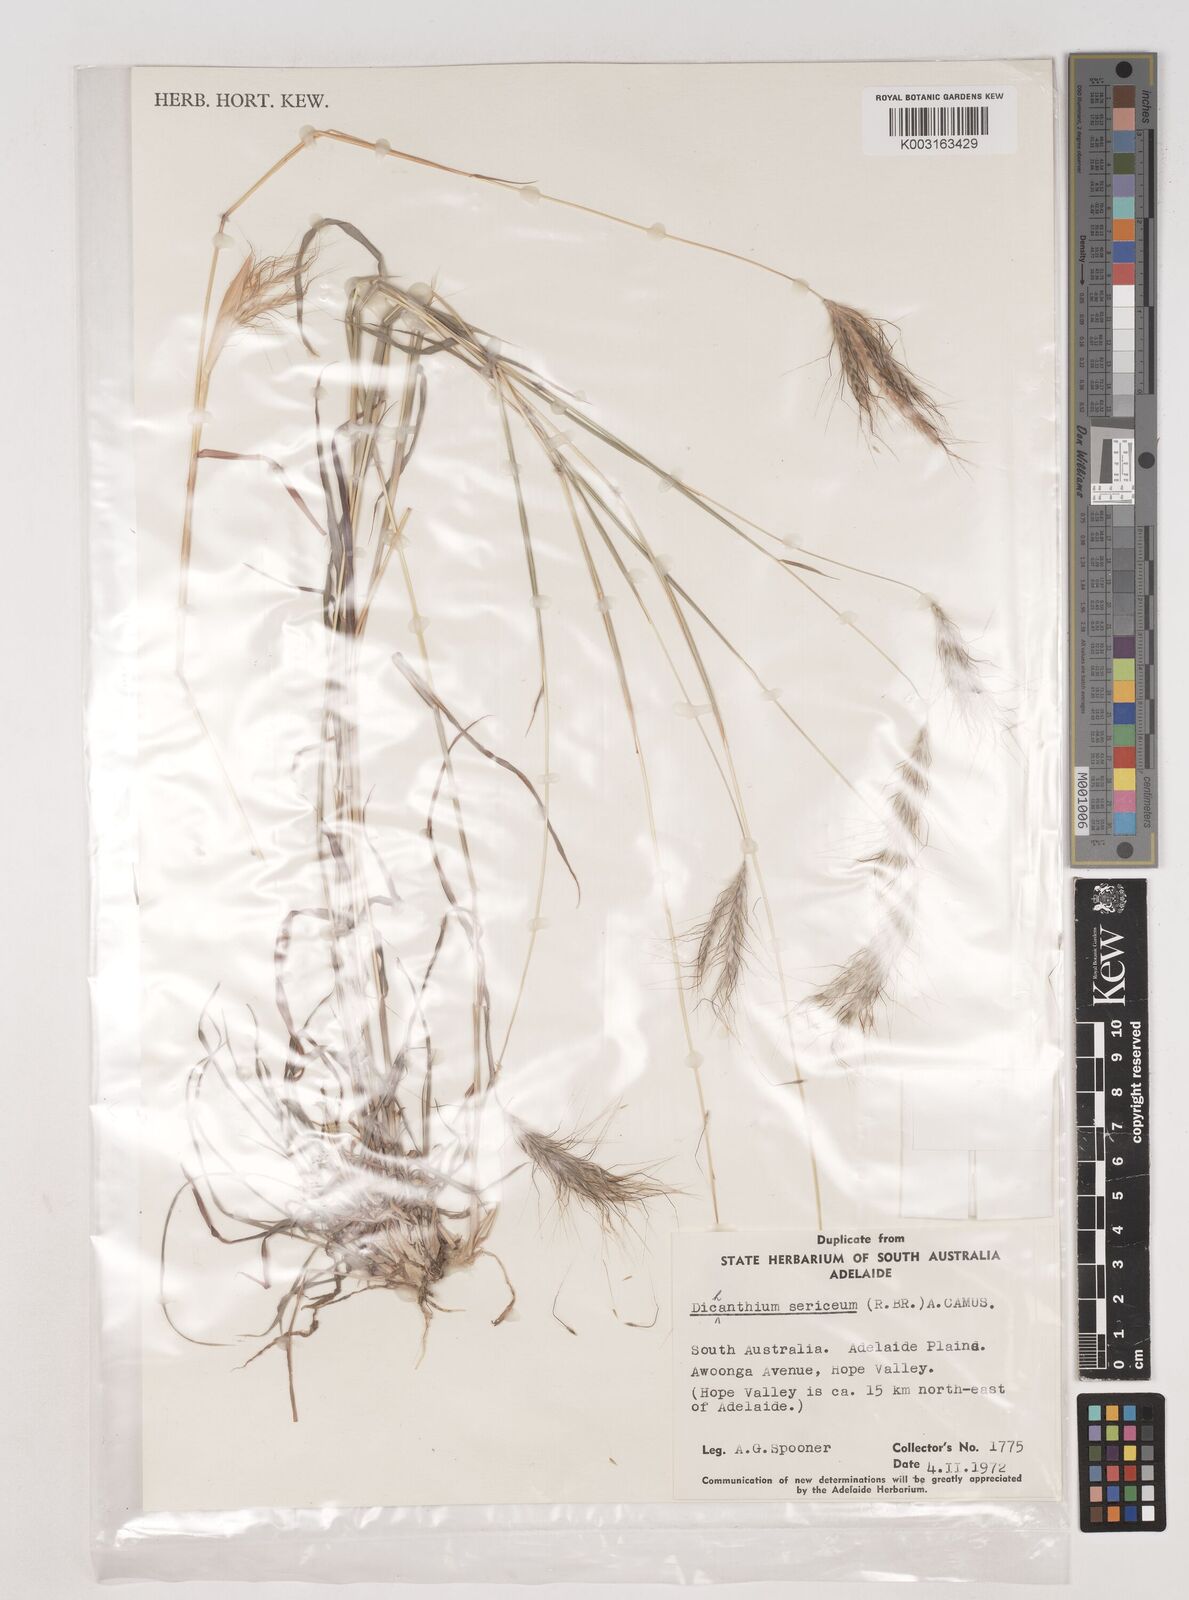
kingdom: Plantae
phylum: Tracheophyta
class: Liliopsida
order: Poales
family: Poaceae
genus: Dichanthium
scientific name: Dichanthium sericeum
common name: Silky bluestem
